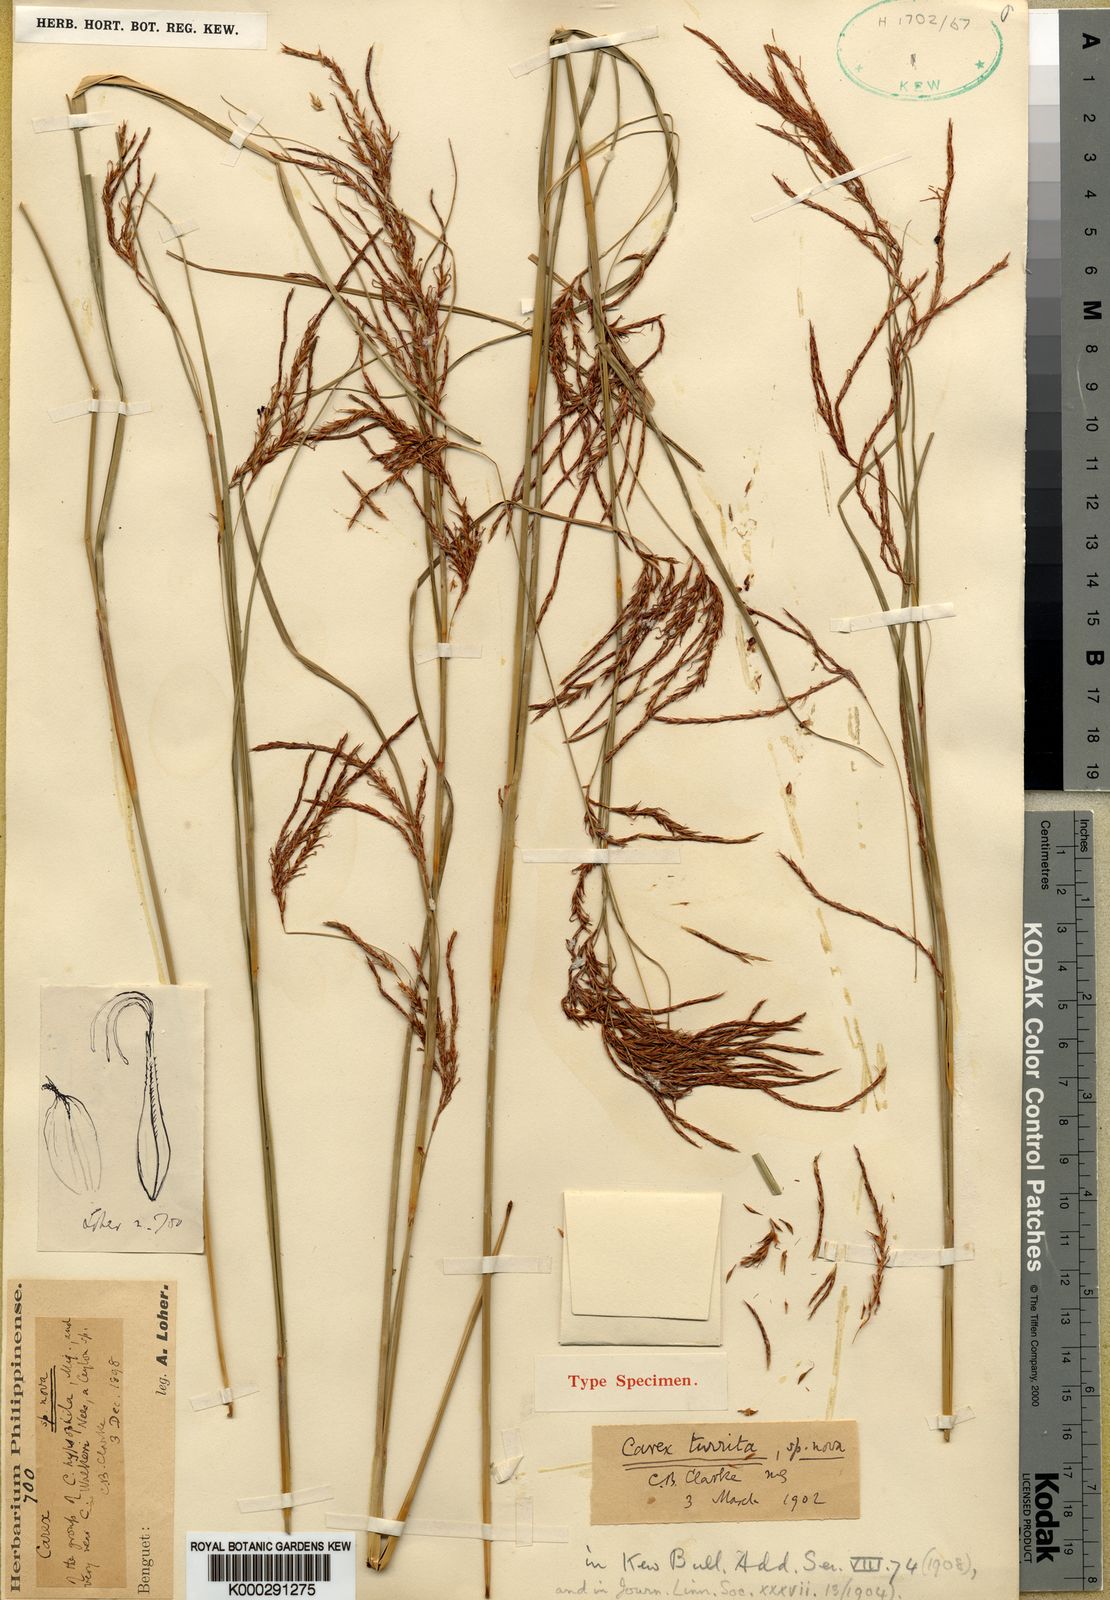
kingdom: Plantae
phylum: Tracheophyta
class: Liliopsida
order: Poales
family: Cyperaceae
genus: Carex
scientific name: Carex turrita
